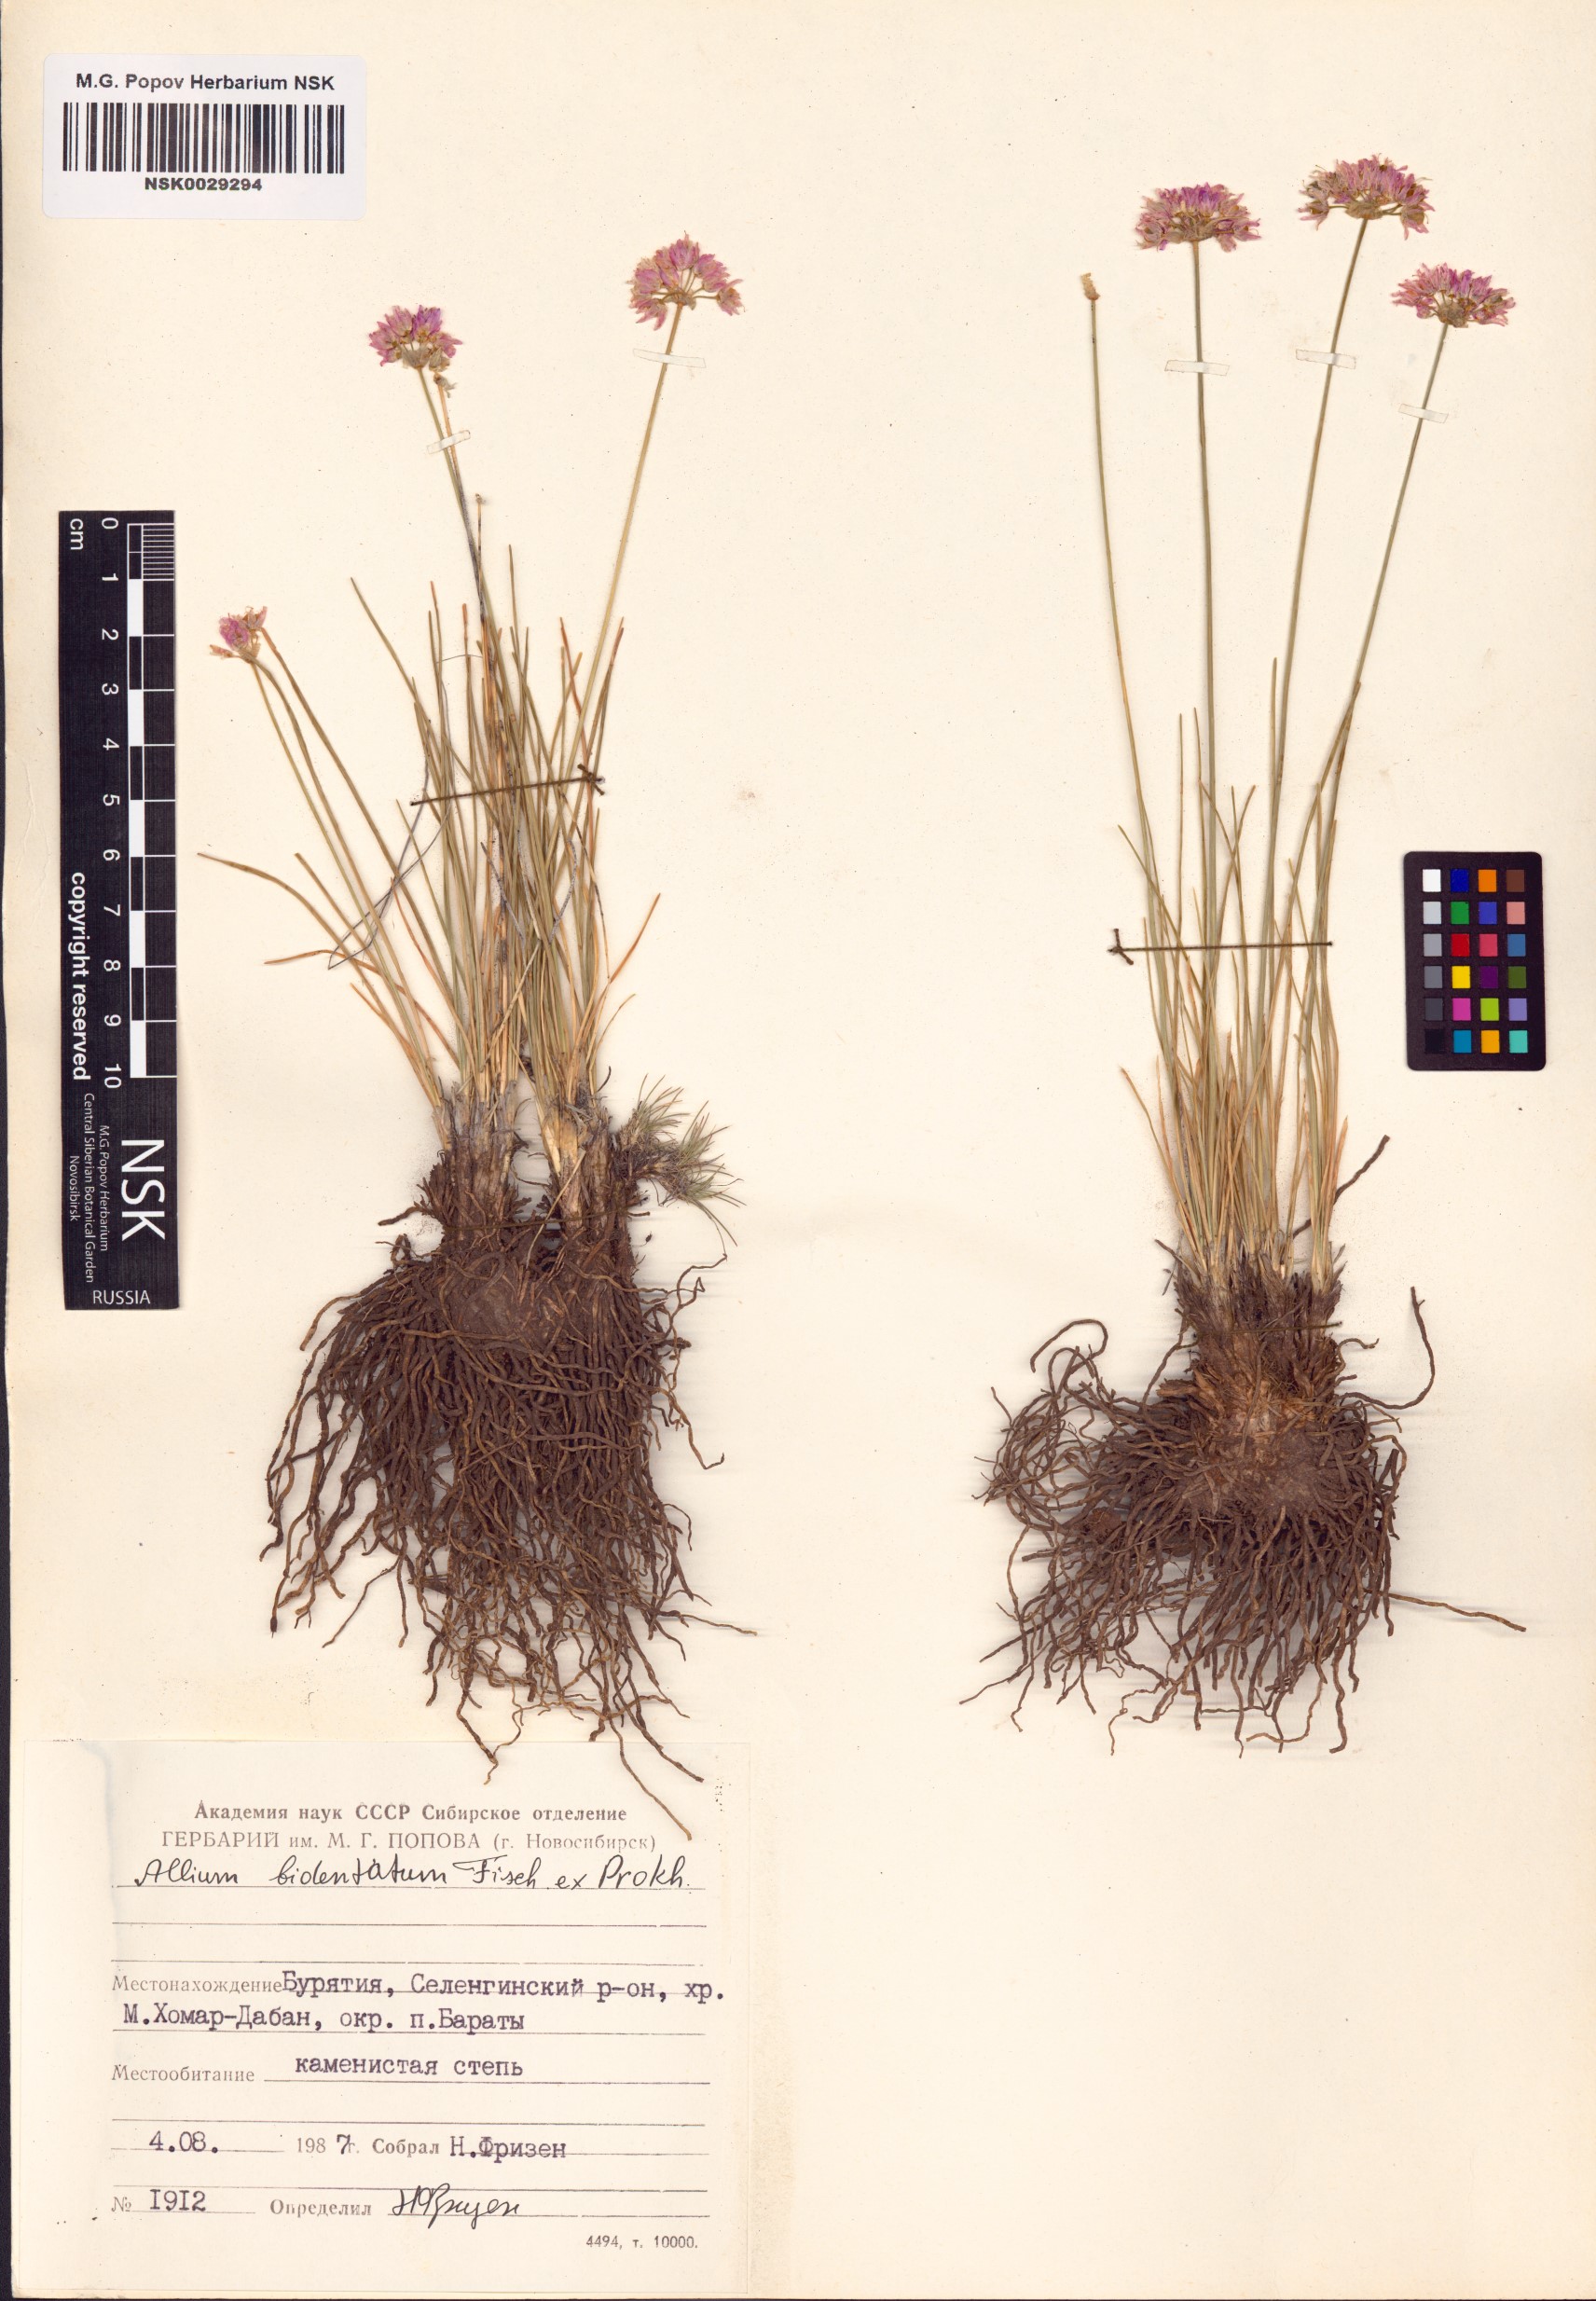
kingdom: Plantae
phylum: Tracheophyta
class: Liliopsida
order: Asparagales
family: Amaryllidaceae
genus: Allium
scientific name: Allium bidentatum
